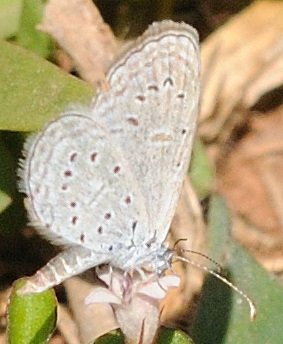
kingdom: Animalia
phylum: Arthropoda
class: Insecta
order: Lepidoptera
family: Lycaenidae
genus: Zizula
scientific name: Zizula hylax
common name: Tiny Grass Blue
